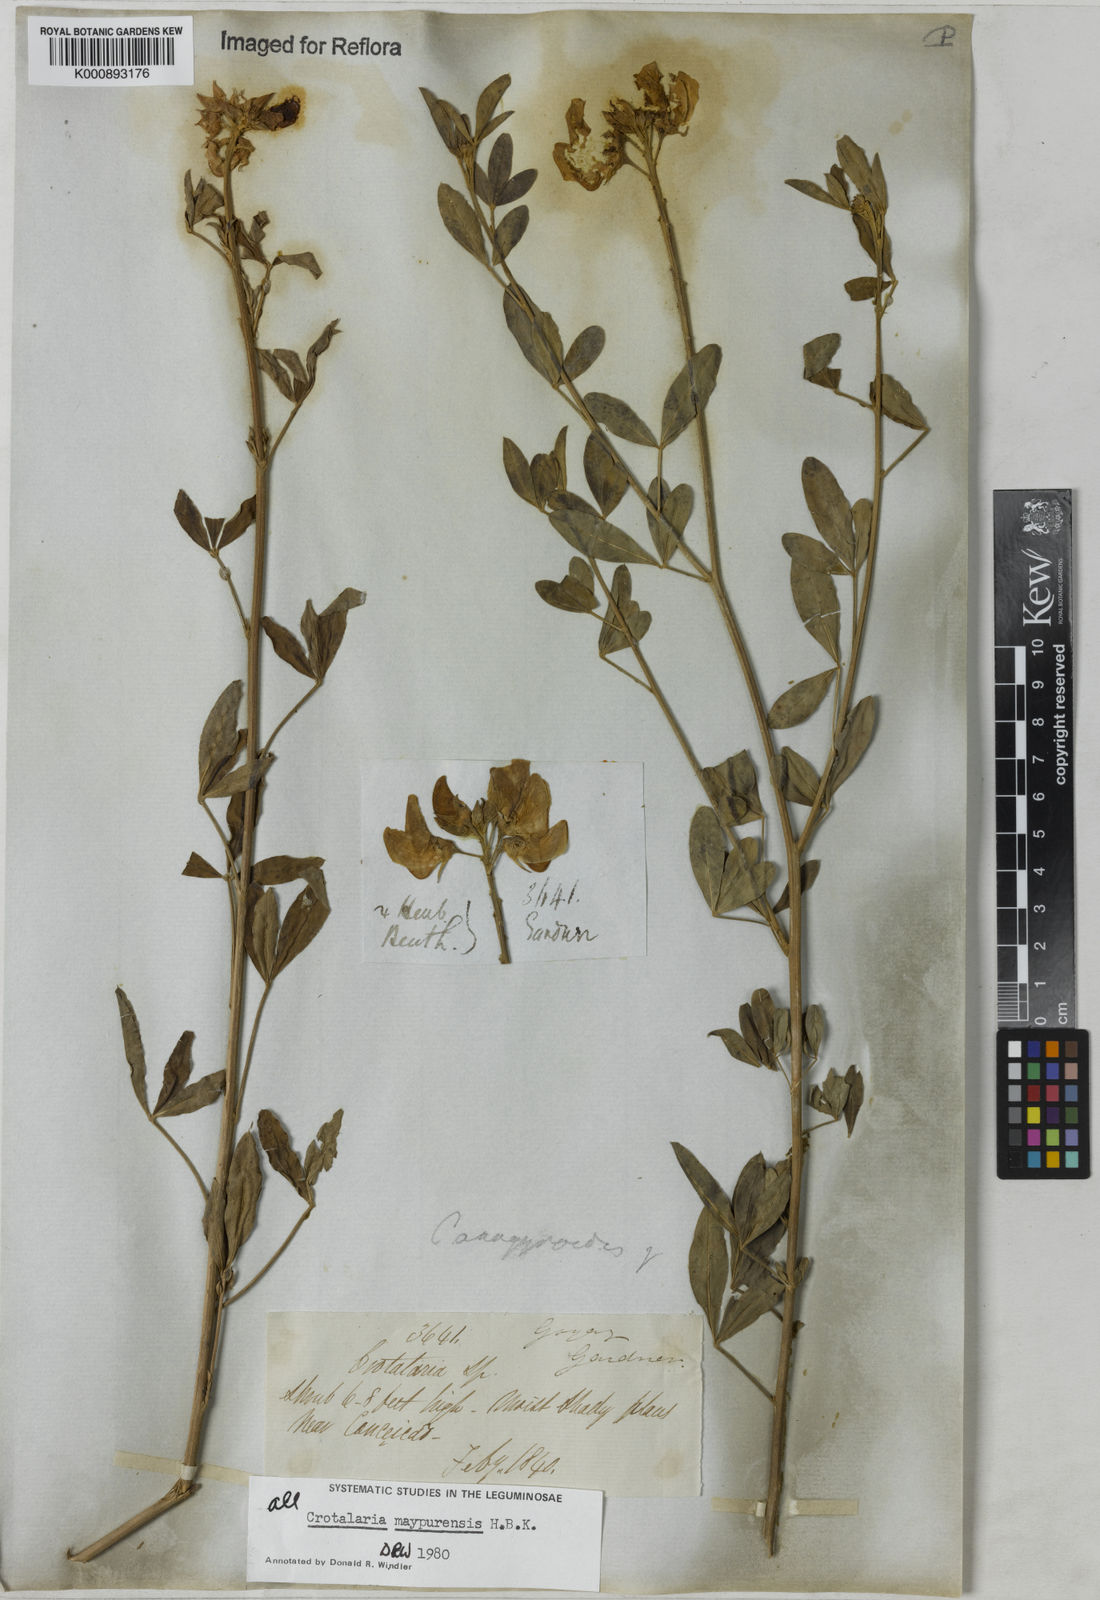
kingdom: Plantae
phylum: Tracheophyta
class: Magnoliopsida
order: Fabales
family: Fabaceae
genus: Crotalaria
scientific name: Crotalaria maypurensis
